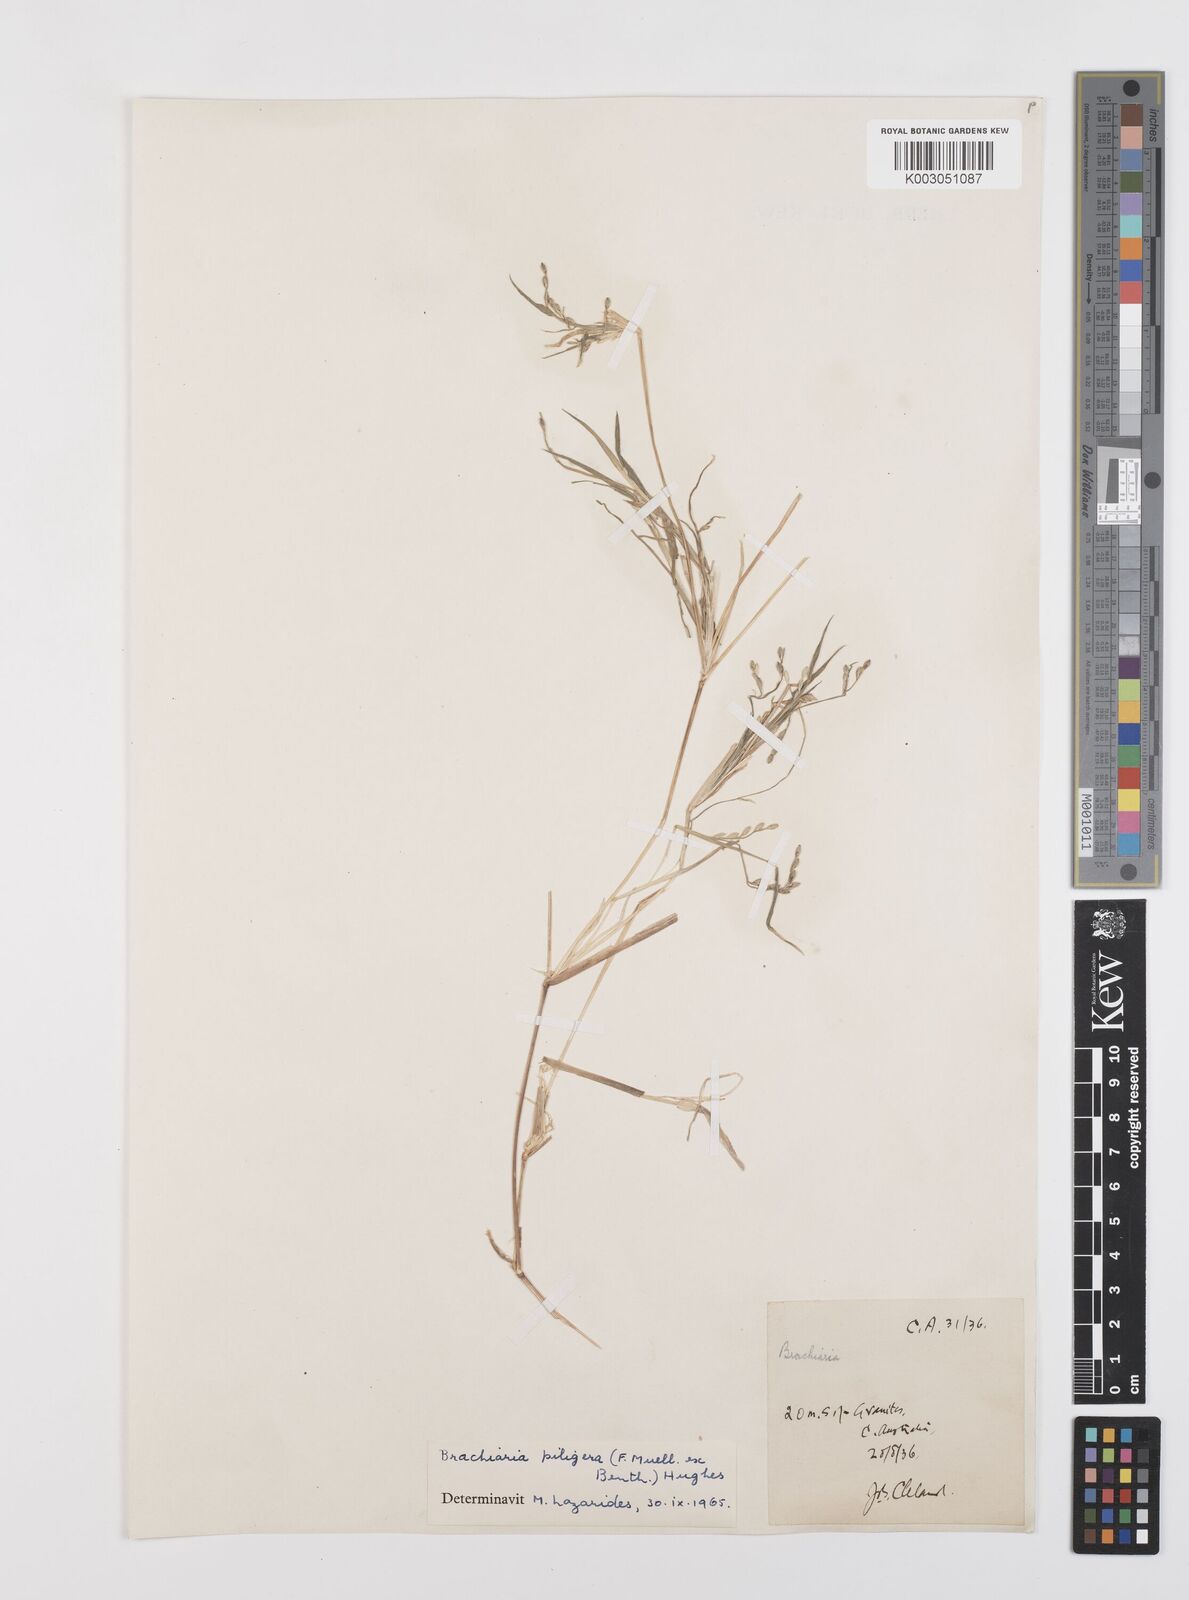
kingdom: Plantae
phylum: Tracheophyta
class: Liliopsida
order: Poales
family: Poaceae
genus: Urochloa
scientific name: Urochloa piligera
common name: Wattle signalgrass
